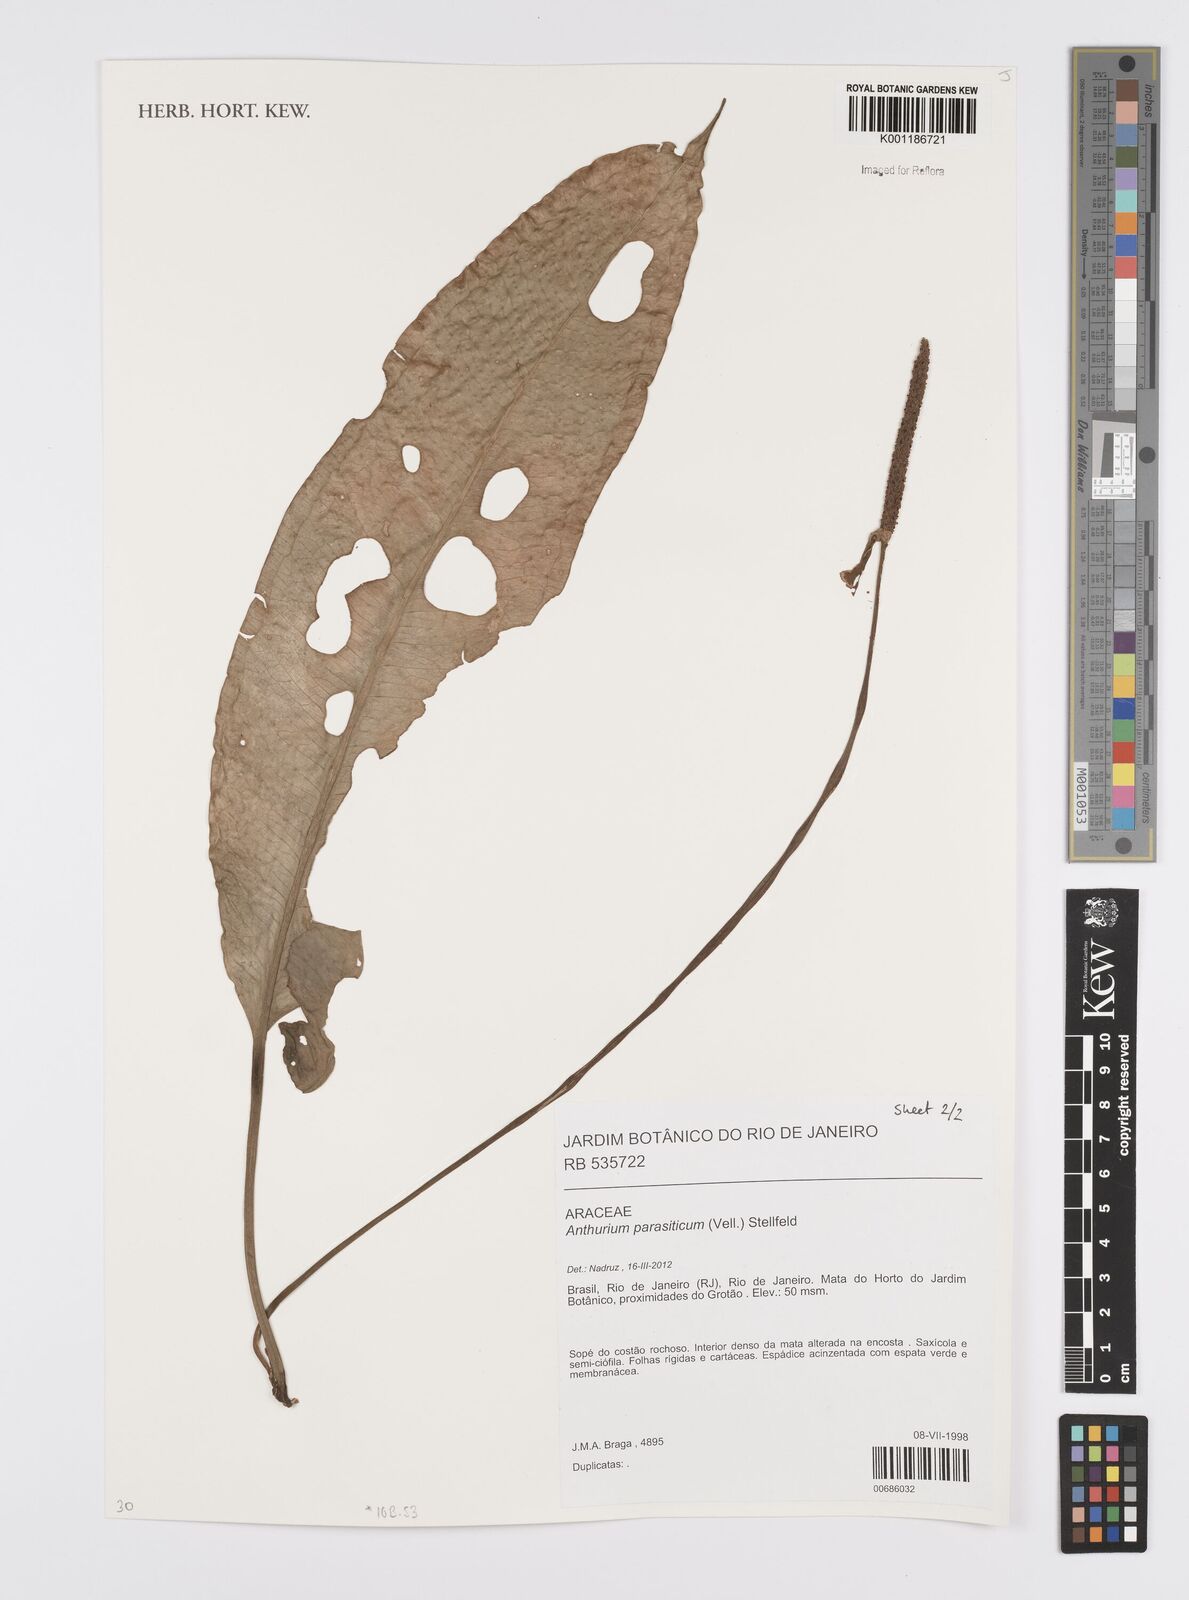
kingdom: Plantae
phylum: Tracheophyta
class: Liliopsida
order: Alismatales
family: Araceae
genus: Anthurium
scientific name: Anthurium parasiticum
